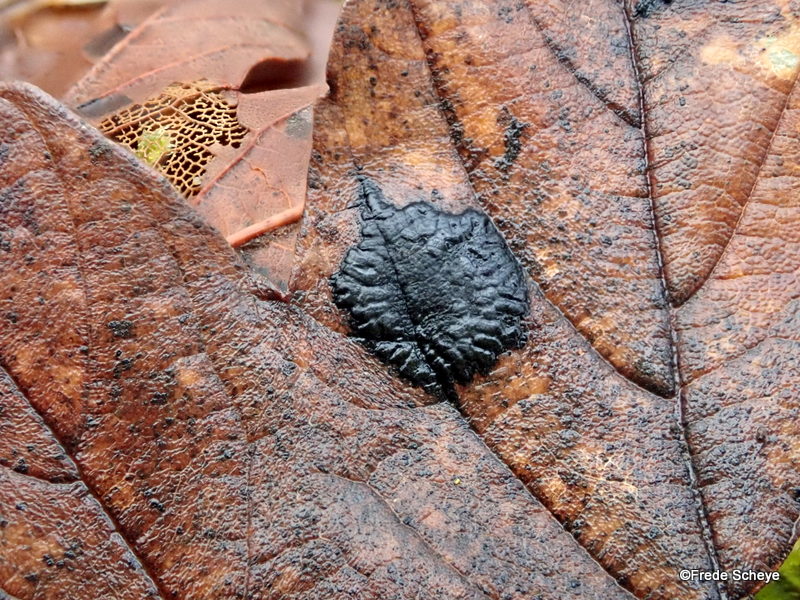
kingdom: Fungi
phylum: Ascomycota
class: Leotiomycetes
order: Rhytismatales
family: Rhytismataceae
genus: Rhytisma
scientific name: Rhytisma acerinum
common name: ahorn-rynkeplet
